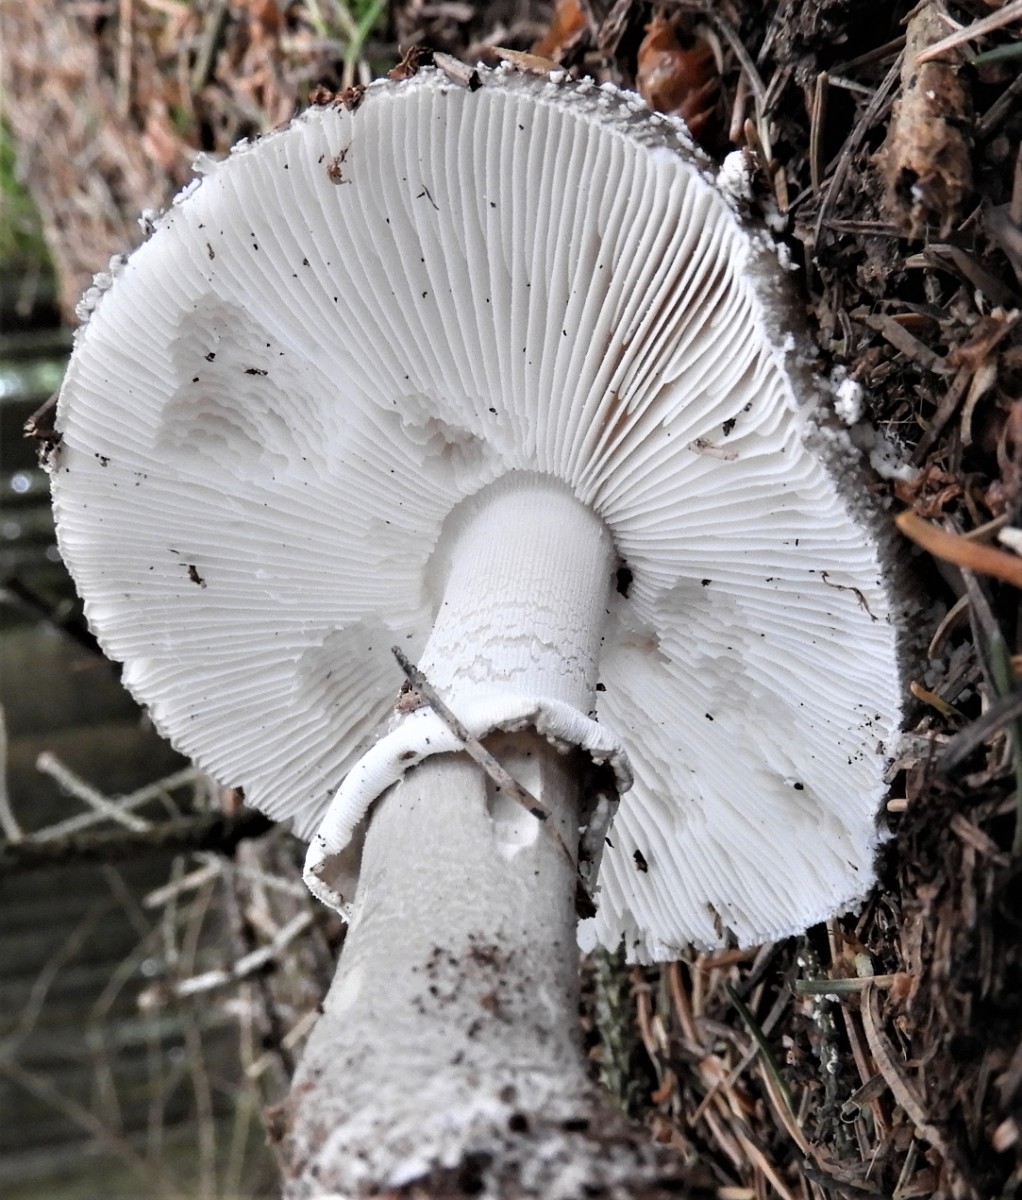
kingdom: Fungi
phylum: Basidiomycota
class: Agaricomycetes
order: Agaricales
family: Amanitaceae
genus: Amanita
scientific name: Amanita
